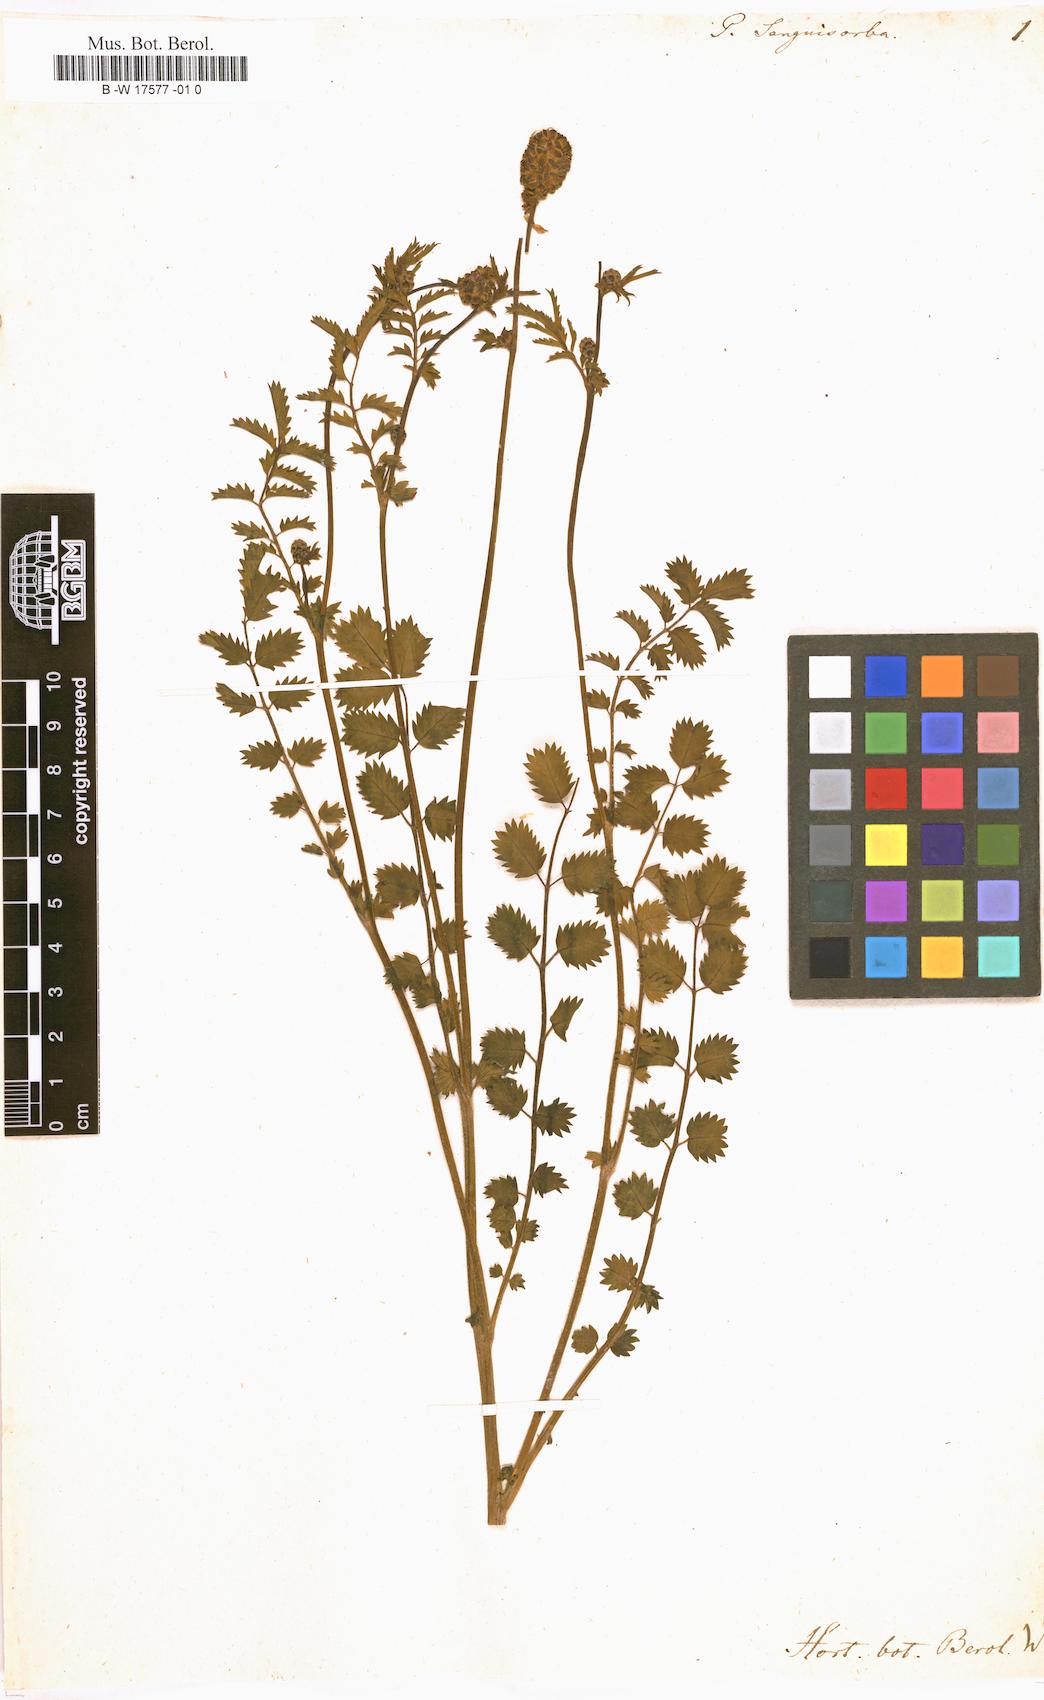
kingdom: Plantae
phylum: Tracheophyta
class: Magnoliopsida
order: Rosales
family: Rosaceae
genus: Poterium
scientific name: Poterium sanguisorba
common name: Salad burnet
